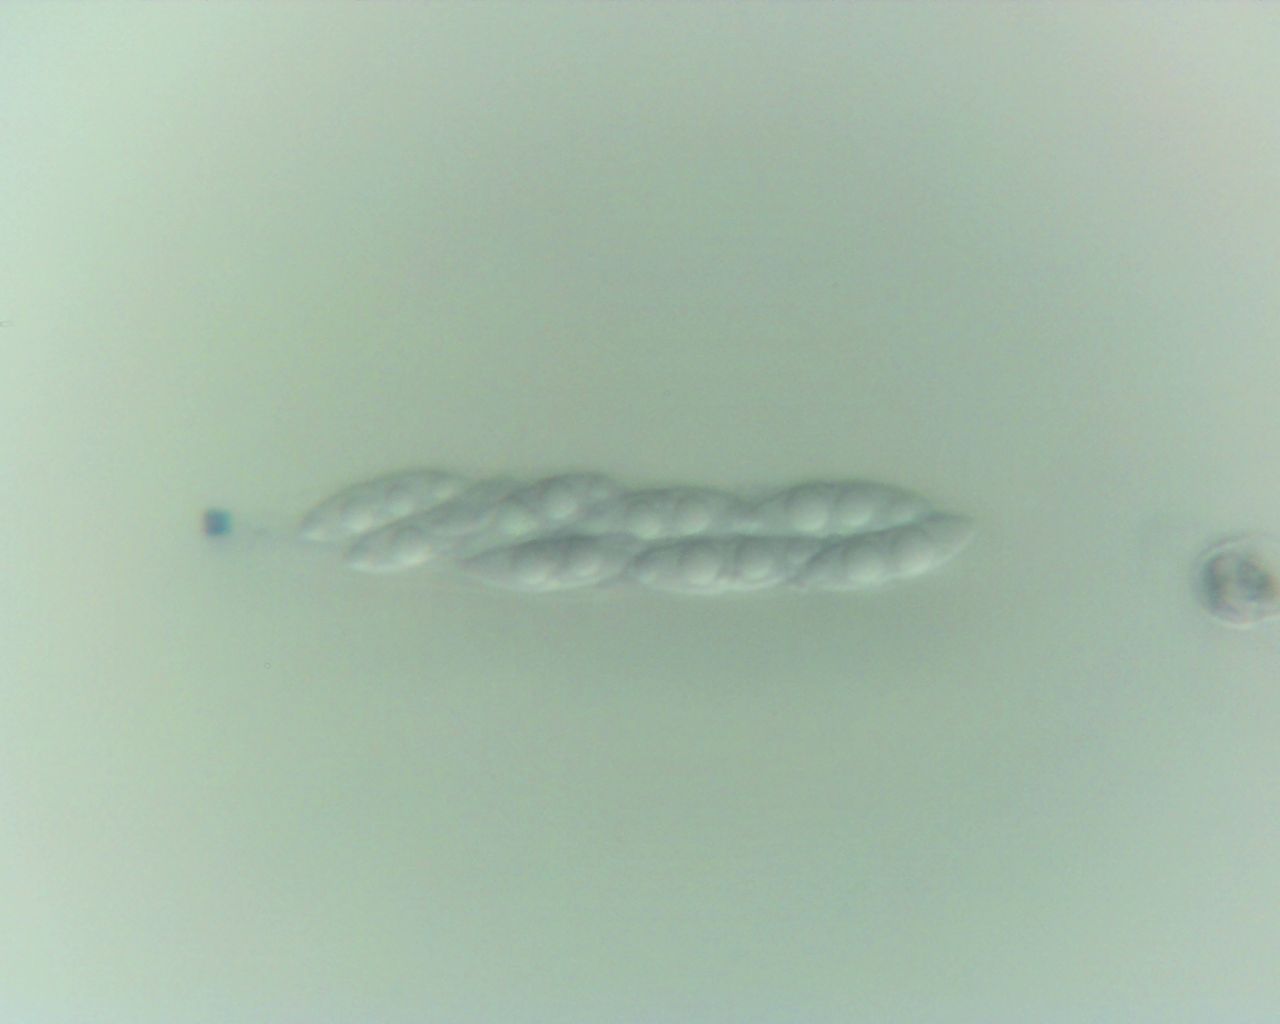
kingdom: Fungi
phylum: Ascomycota
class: Sordariomycetes
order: Diaporthales
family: Diaporthaceae
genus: Diaporthe
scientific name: Diaporthe strumella
